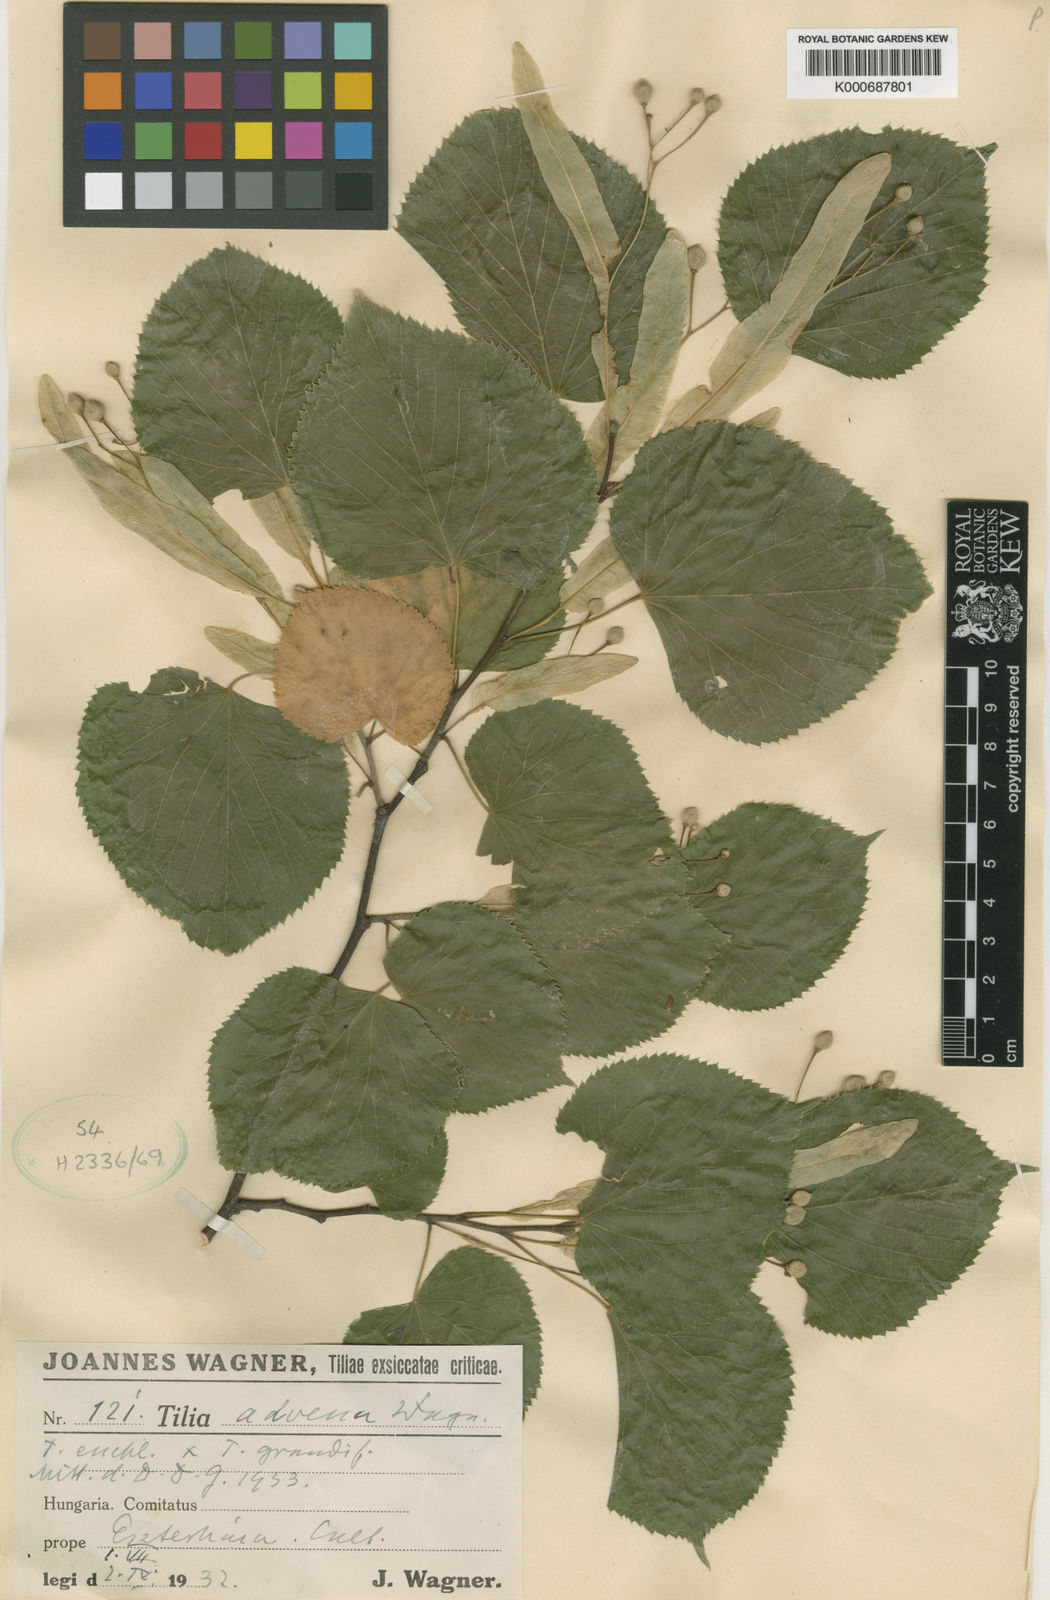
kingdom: Plantae
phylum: Tracheophyta
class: Magnoliopsida
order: Malvales
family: Malvaceae
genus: Tilia
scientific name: Tilia
